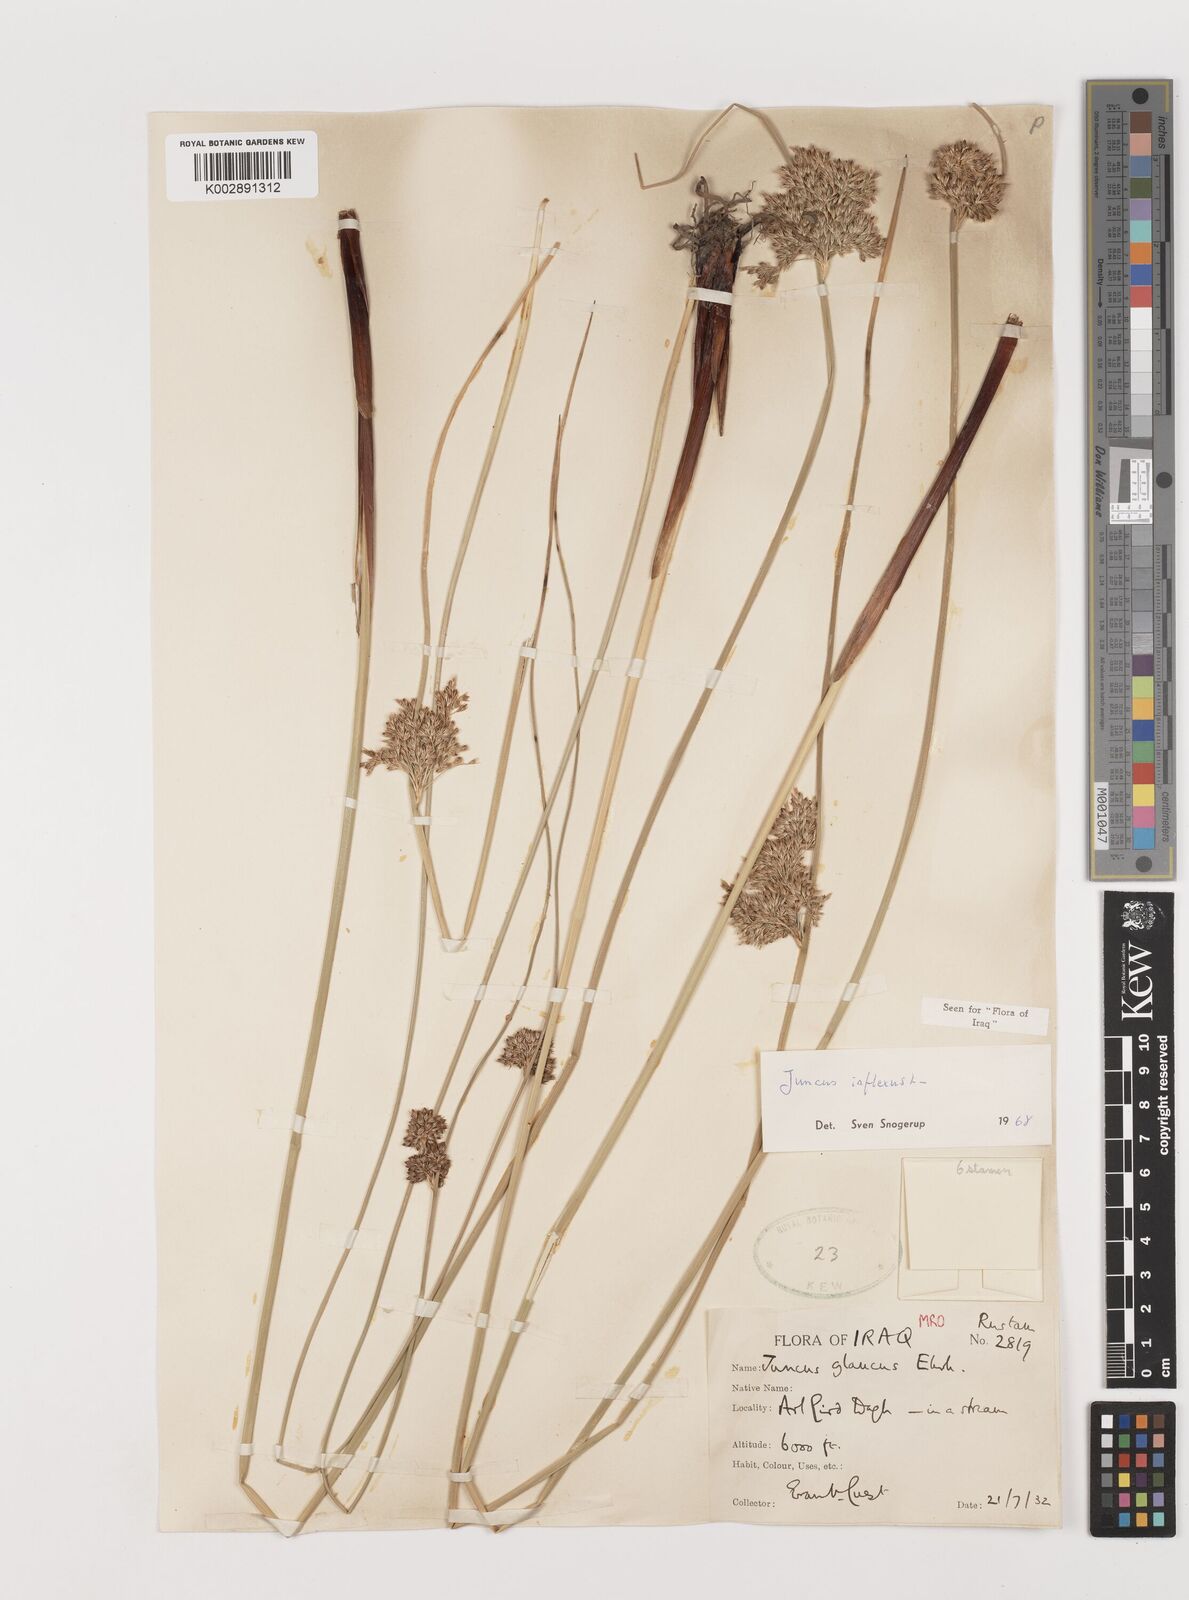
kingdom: Plantae
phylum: Tracheophyta
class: Liliopsida
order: Poales
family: Juncaceae
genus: Juncus
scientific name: Juncus inflexus
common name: Hard rush
